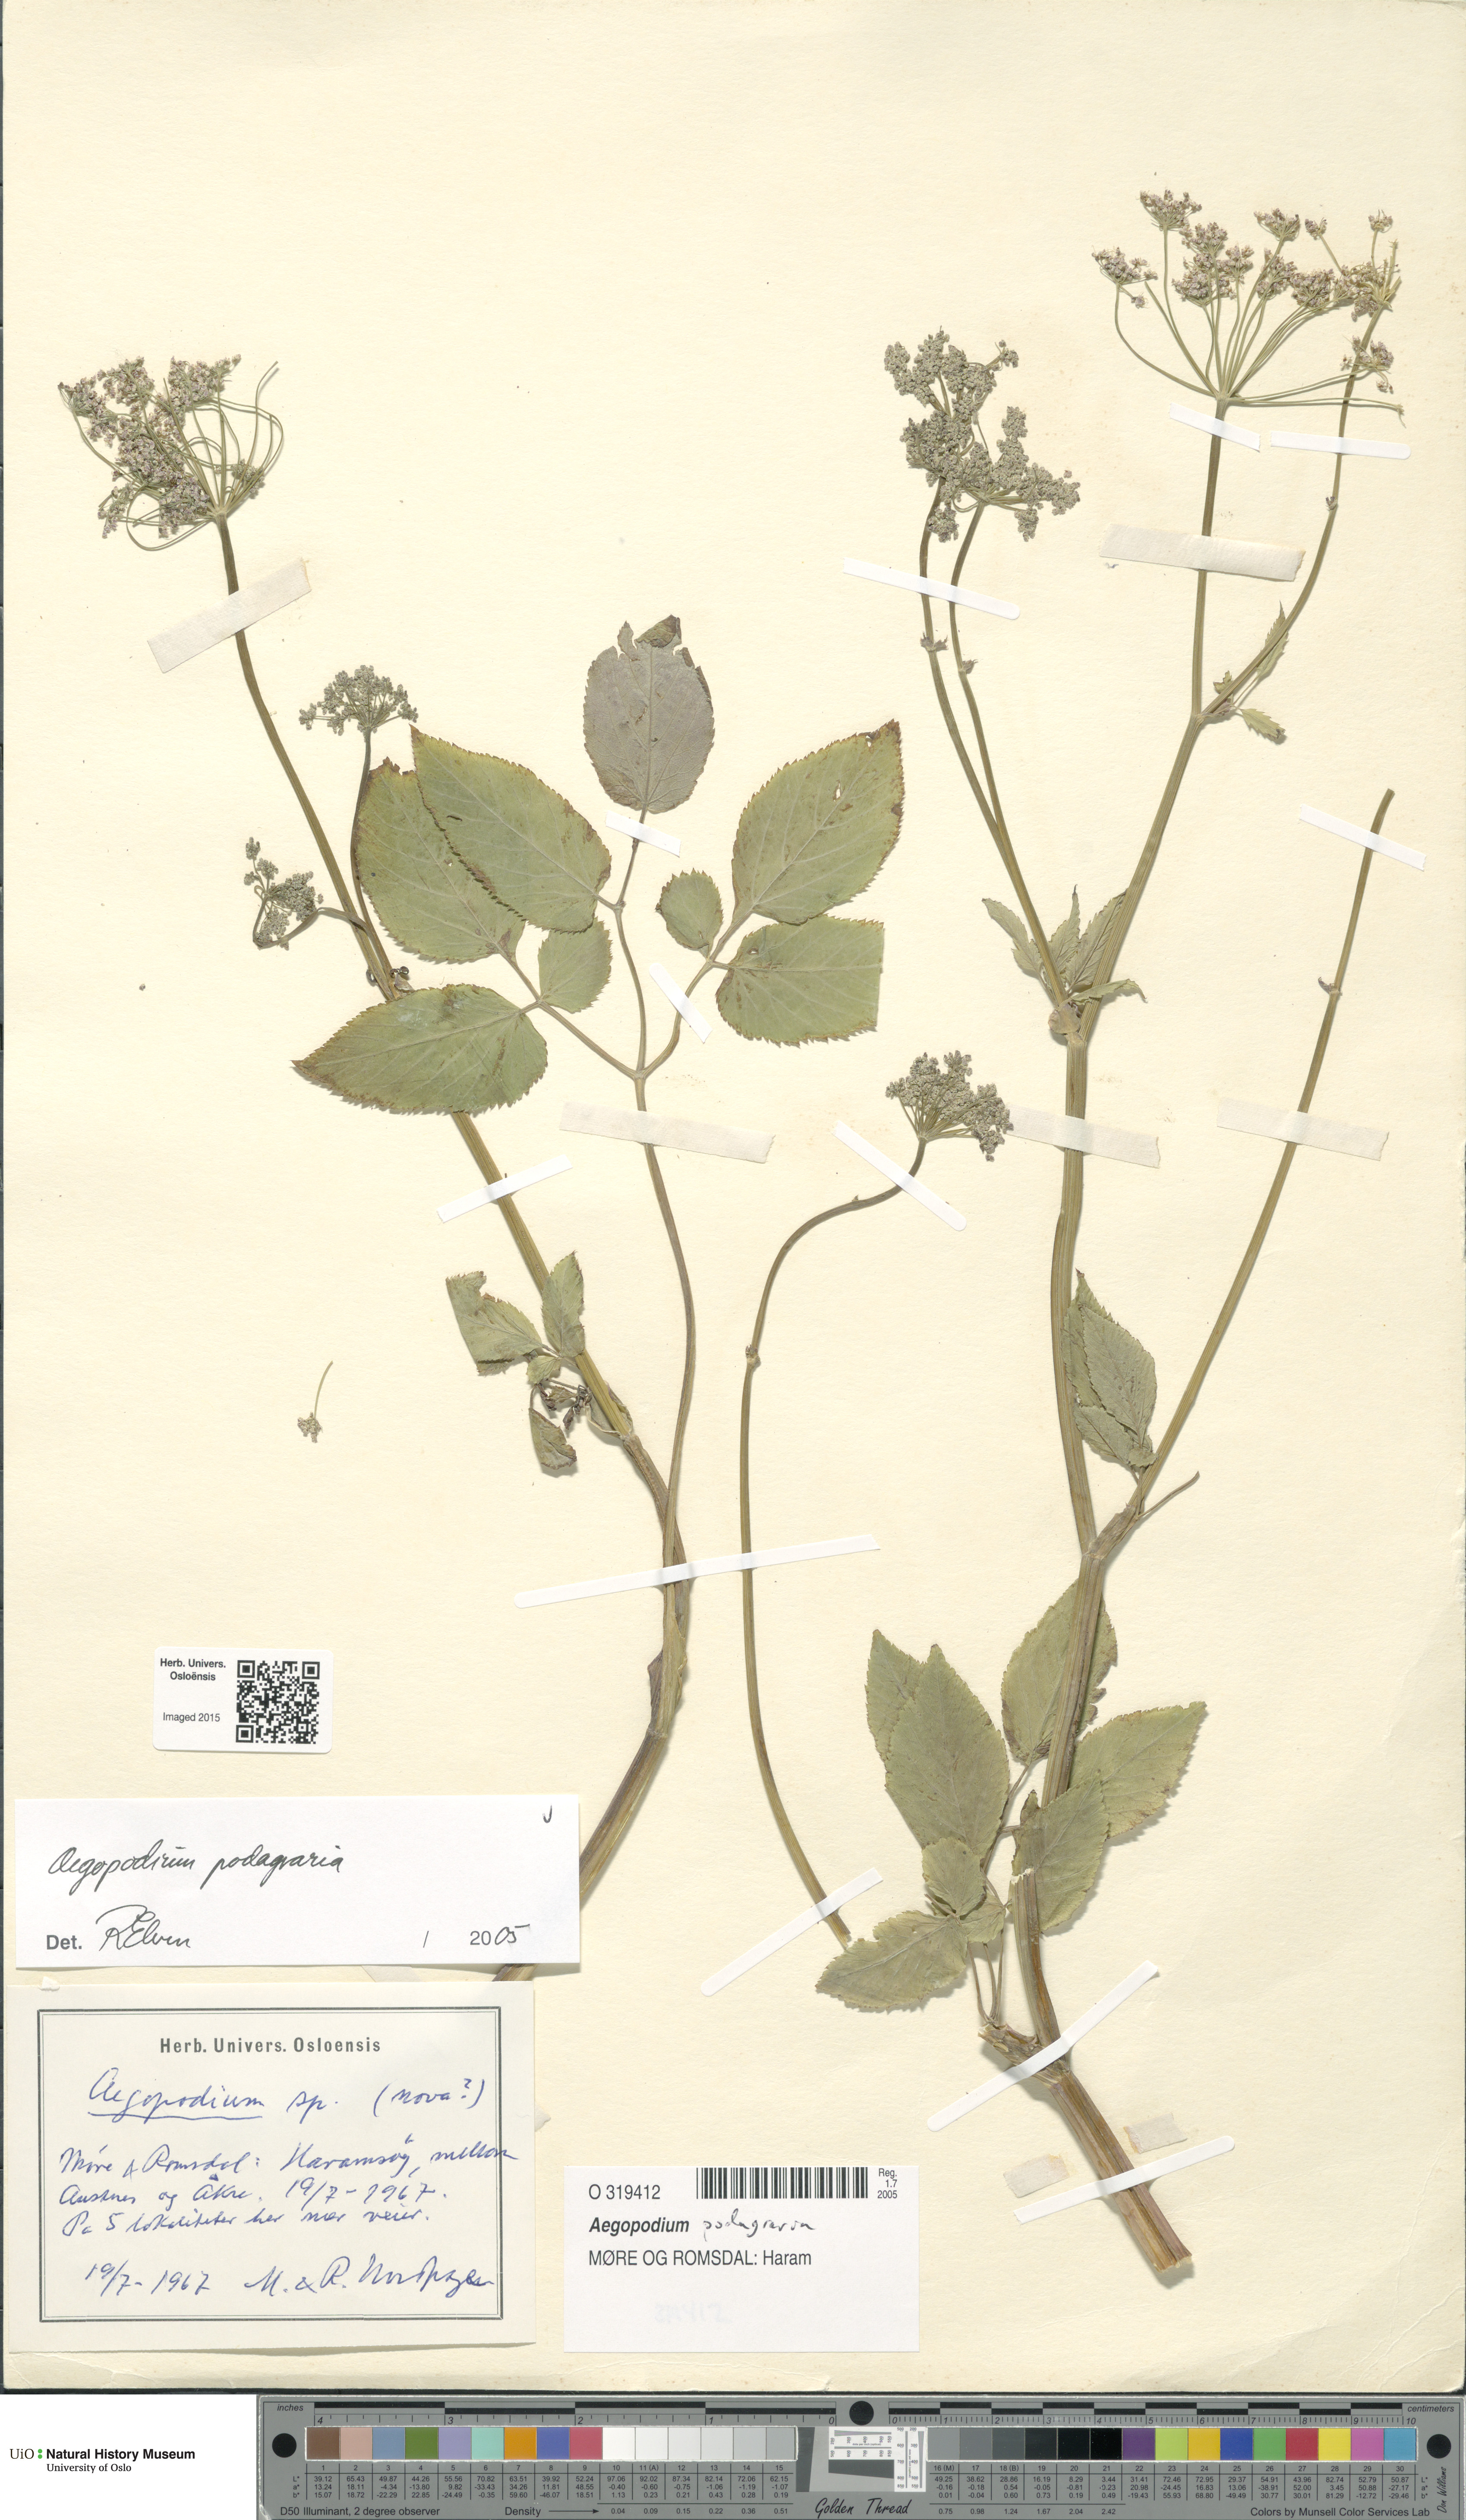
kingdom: Plantae
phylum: Tracheophyta
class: Magnoliopsida
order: Apiales
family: Apiaceae
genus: Aegopodium
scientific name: Aegopodium podagraria
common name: Ground-elder
